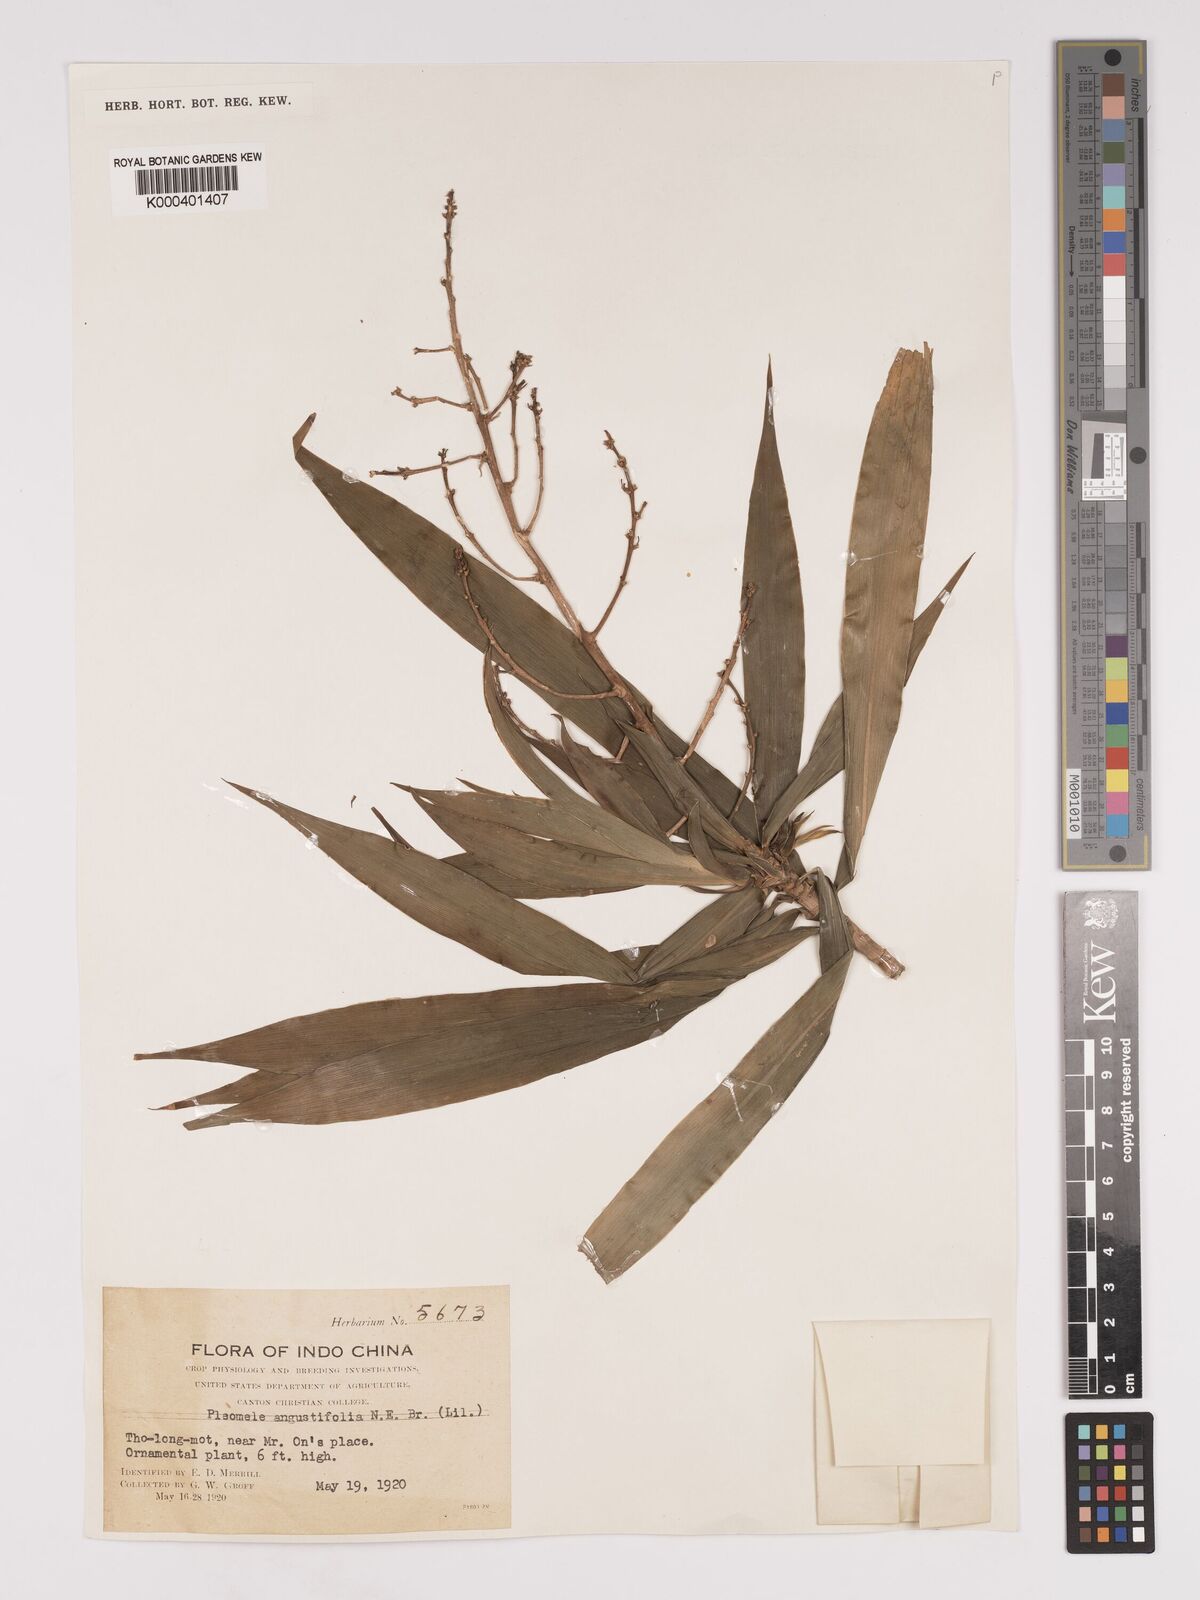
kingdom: Plantae
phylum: Tracheophyta
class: Liliopsida
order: Asparagales
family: Asparagaceae
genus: Dracaena
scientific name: Dracaena angustifolia
